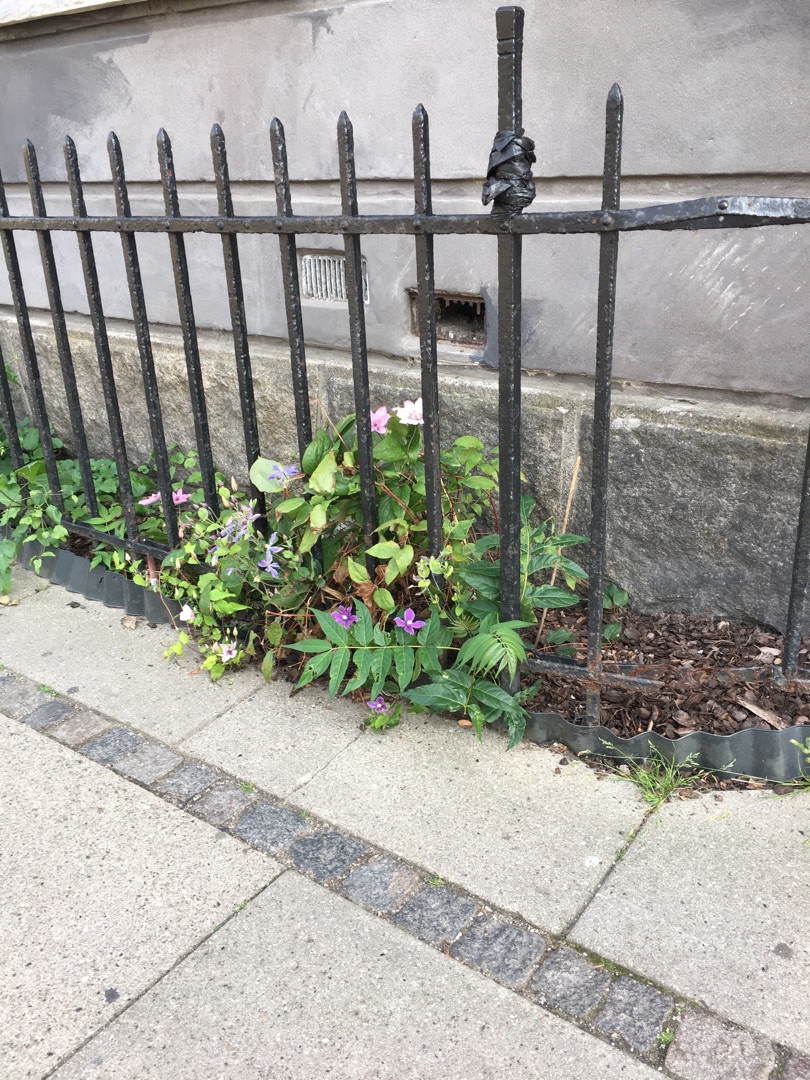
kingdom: Plantae
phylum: Tracheophyta
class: Magnoliopsida
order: Sapindales
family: Simaroubaceae
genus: Ailanthus
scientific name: Ailanthus altissima
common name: Skyrækker
